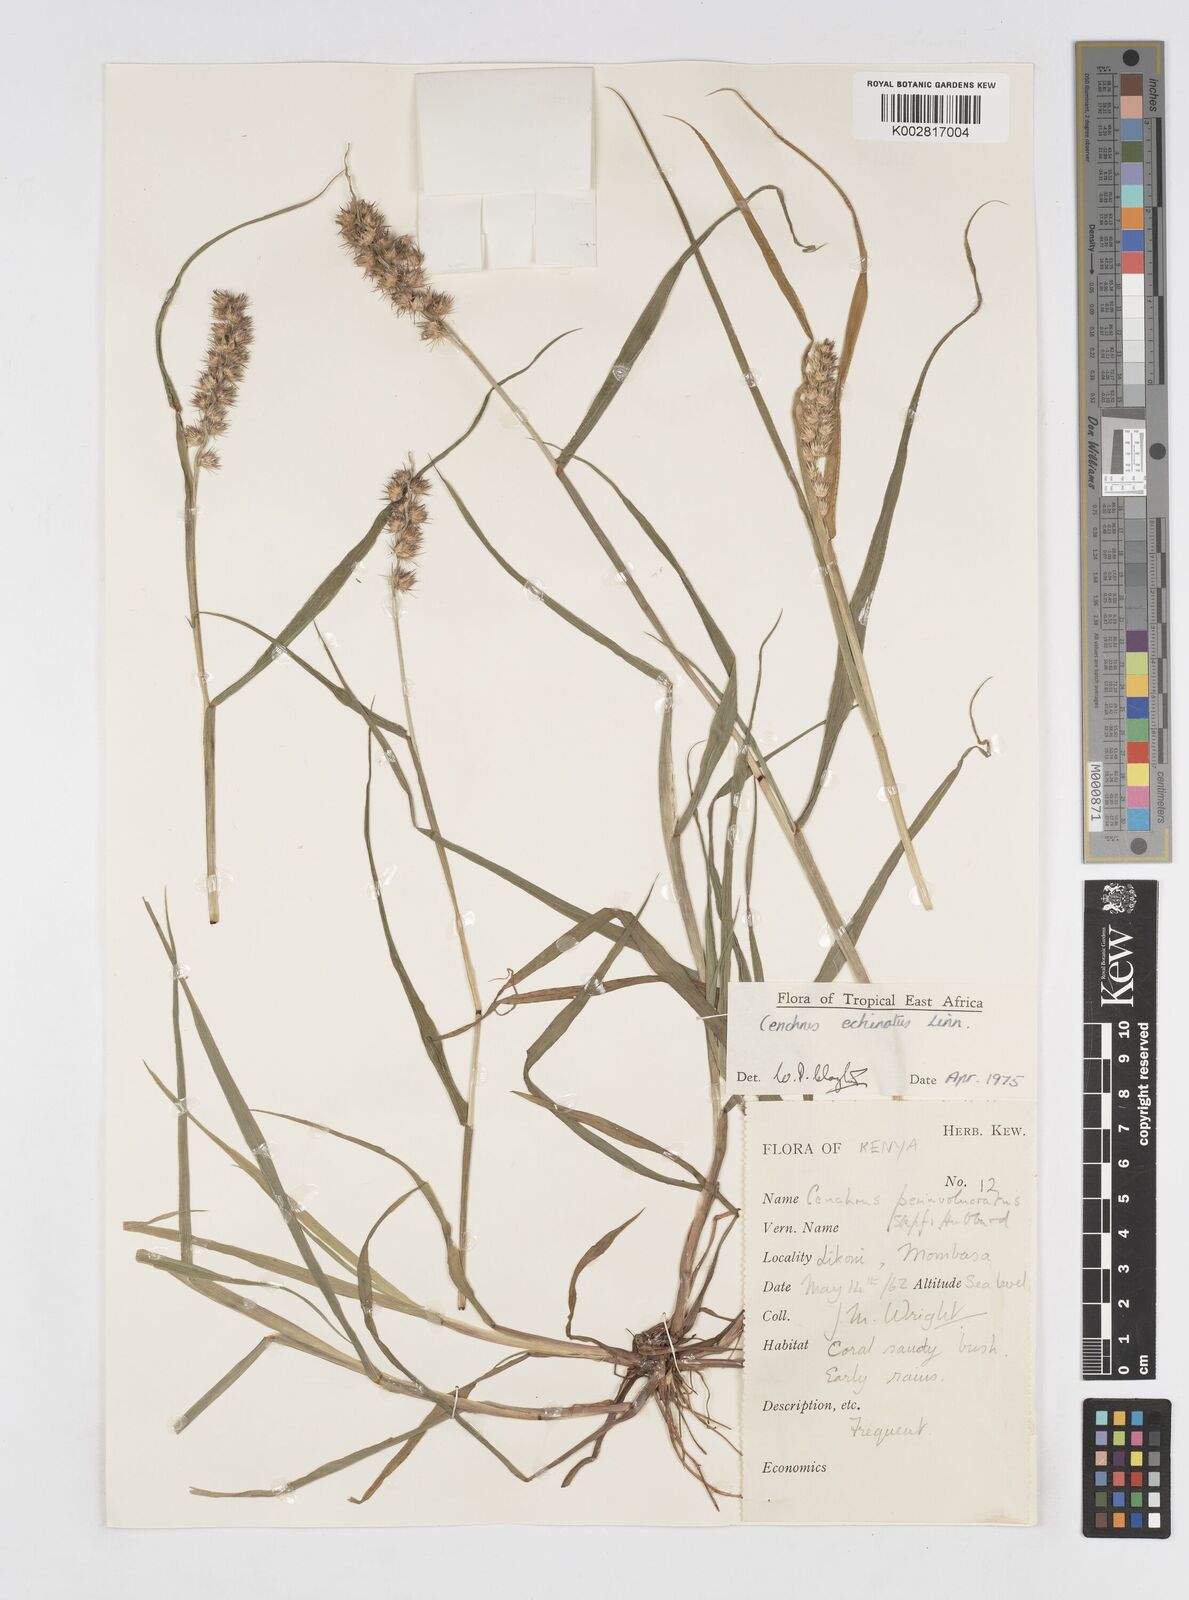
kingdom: Plantae
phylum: Tracheophyta
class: Liliopsida
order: Poales
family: Poaceae
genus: Cenchrus
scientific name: Cenchrus echinatus
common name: Southern sandbur
